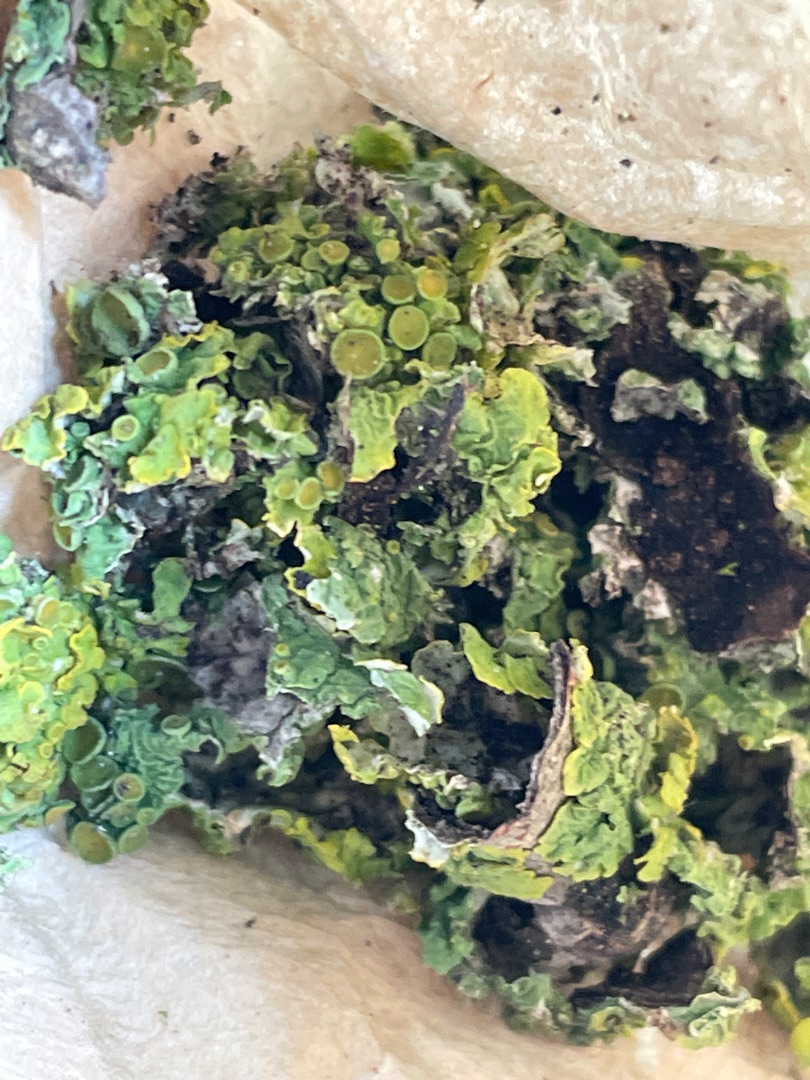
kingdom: Fungi
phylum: Ascomycota
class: Lecanoromycetes
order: Teloschistales
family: Teloschistaceae
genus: Xanthoria
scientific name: Xanthoria parietina
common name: Almindelig væggelav
